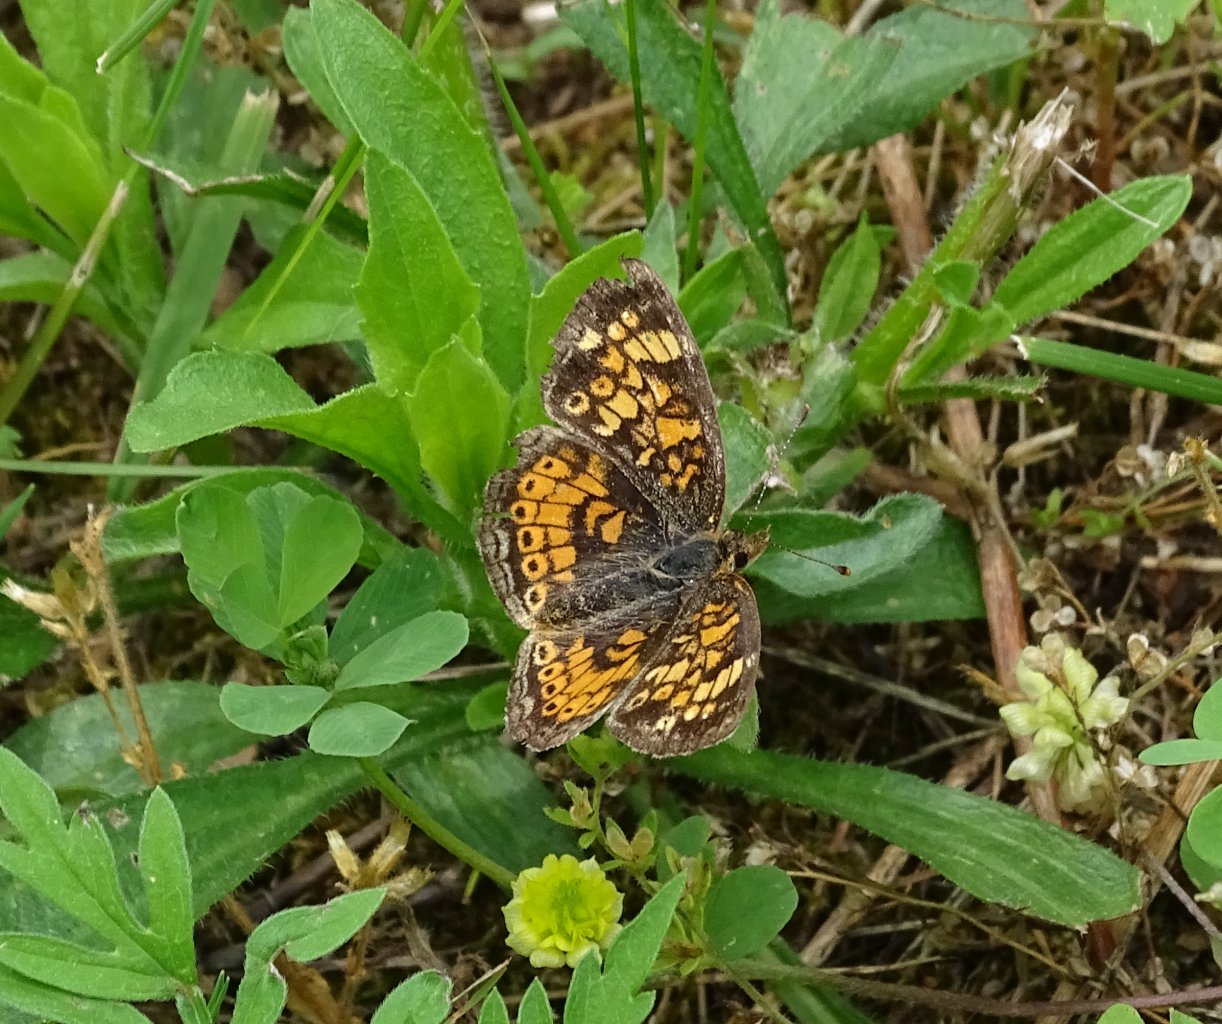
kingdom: Animalia
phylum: Arthropoda
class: Insecta
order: Lepidoptera
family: Nymphalidae
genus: Phyciodes
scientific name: Phyciodes tharos
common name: Pearl Crescent
